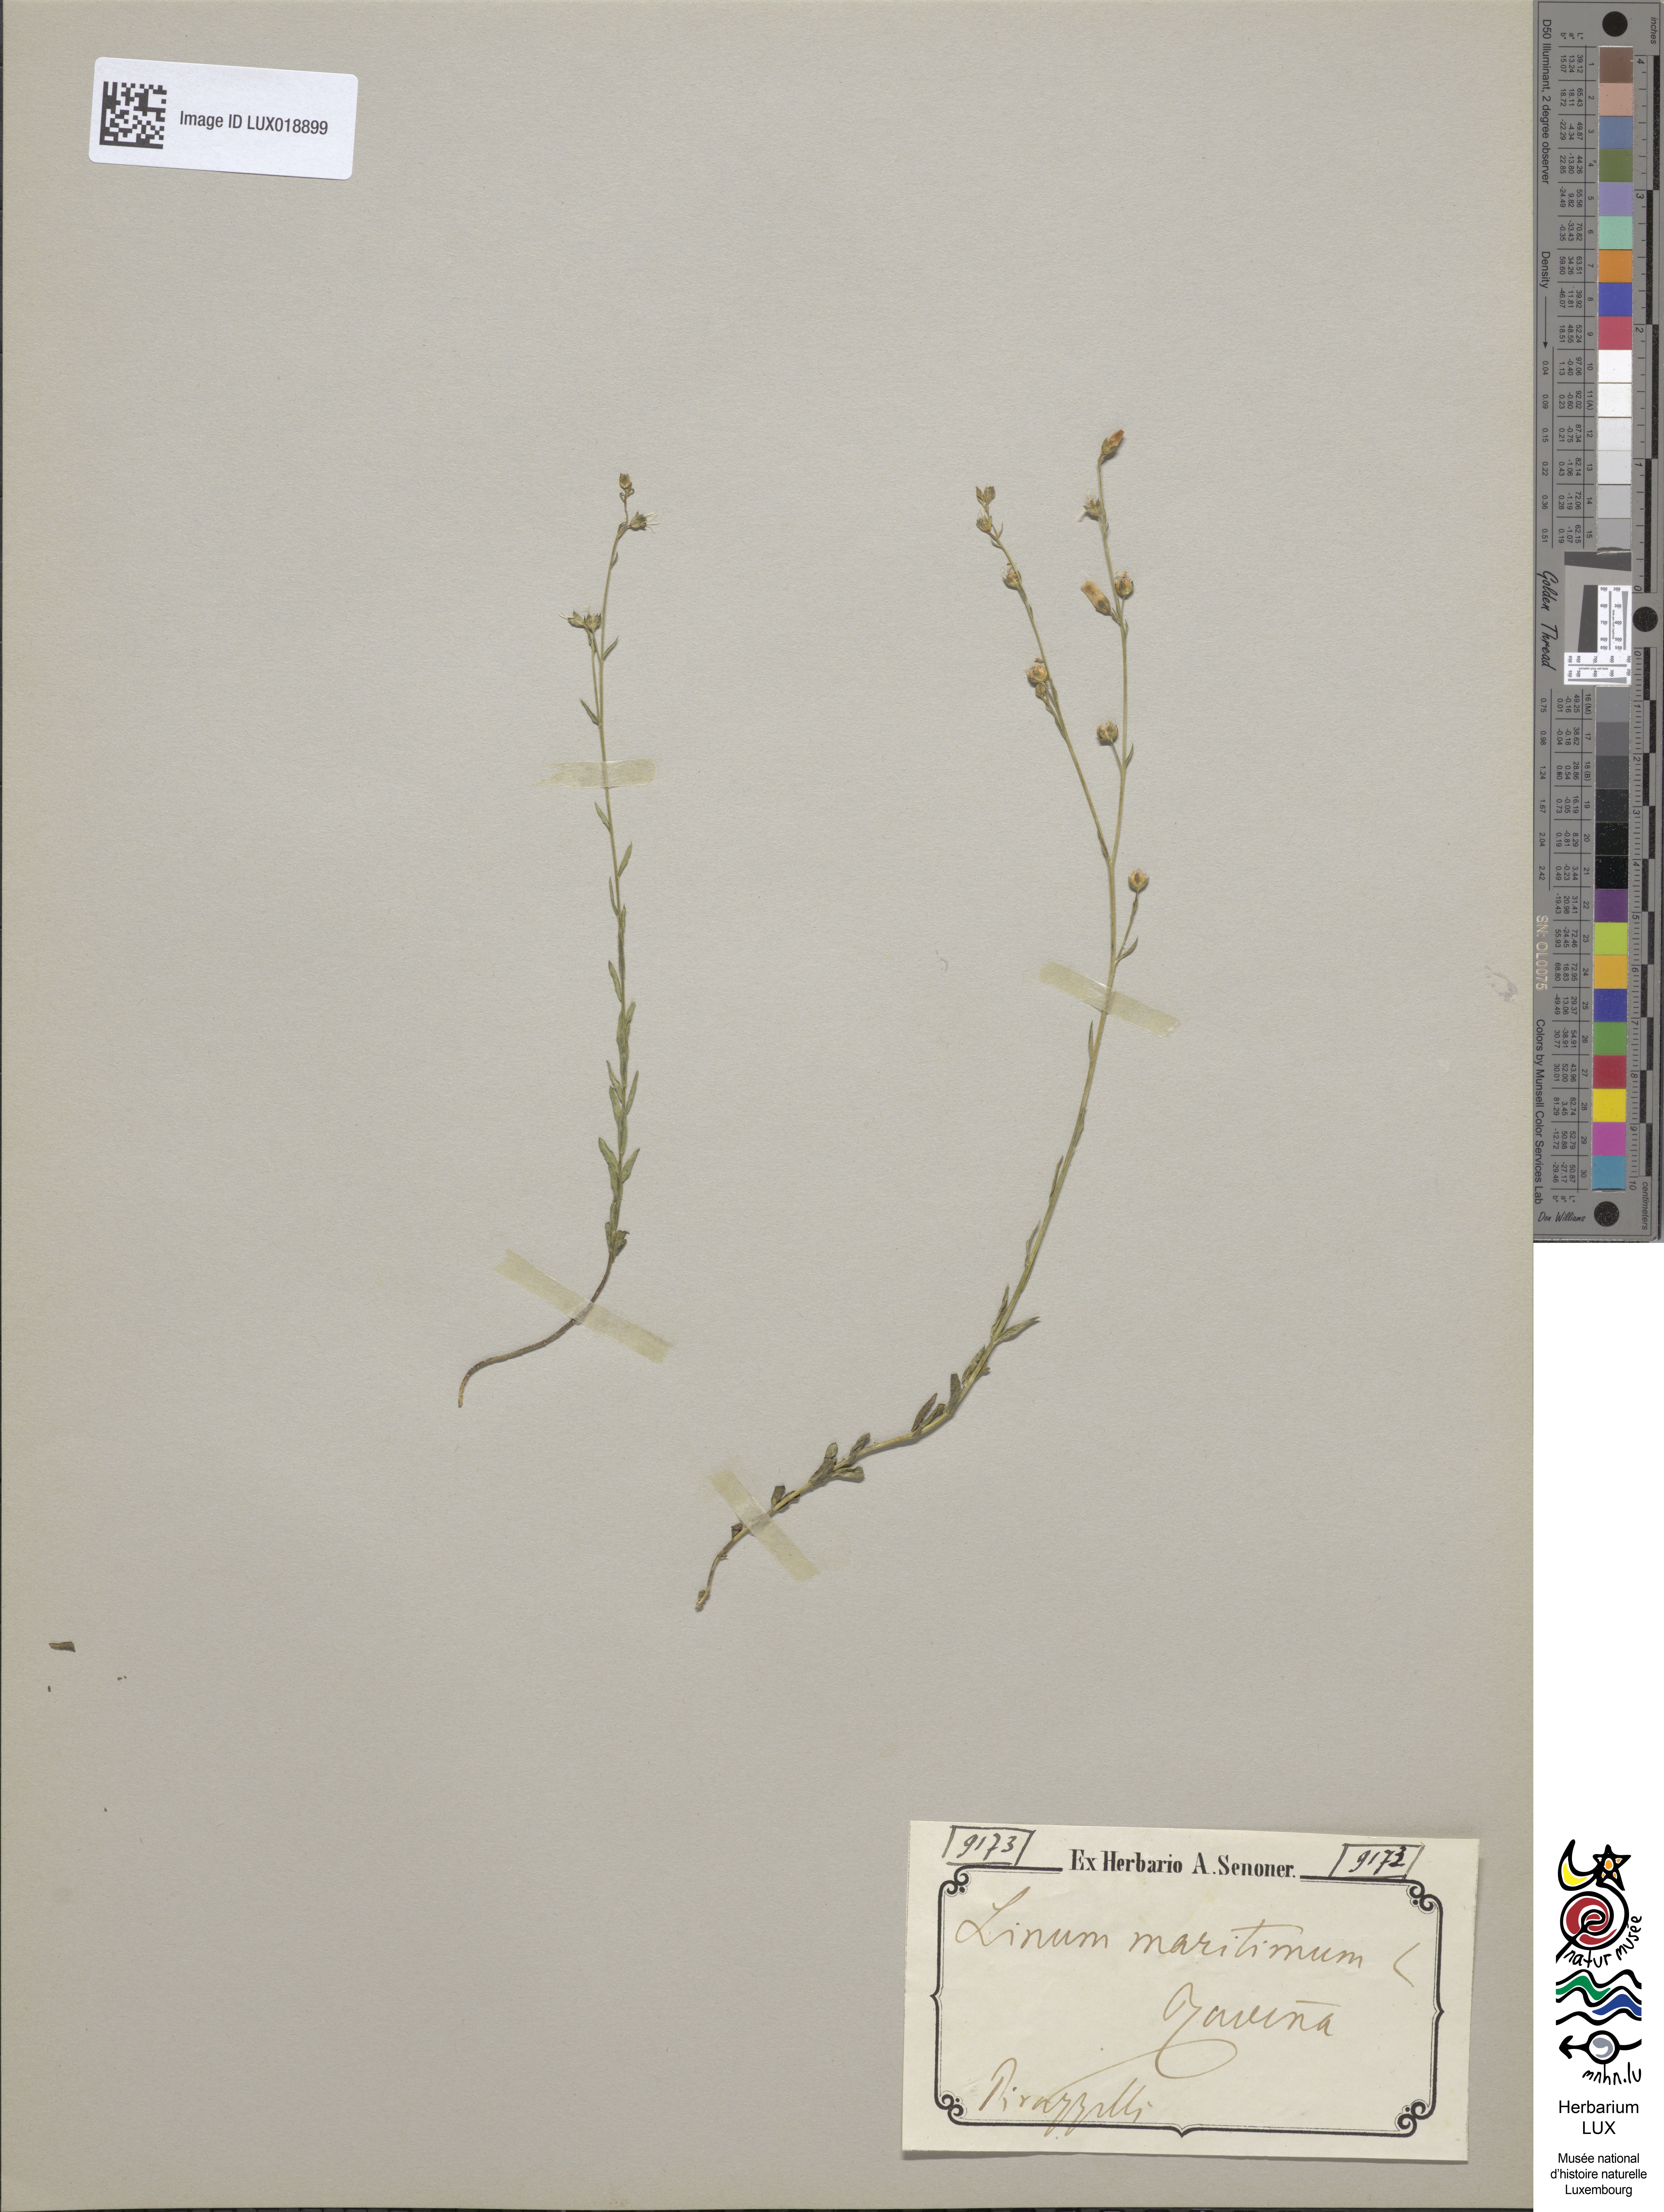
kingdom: Plantae
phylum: Tracheophyta
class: Magnoliopsida
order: Malpighiales
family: Linaceae
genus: Linum
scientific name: Linum maritimum
